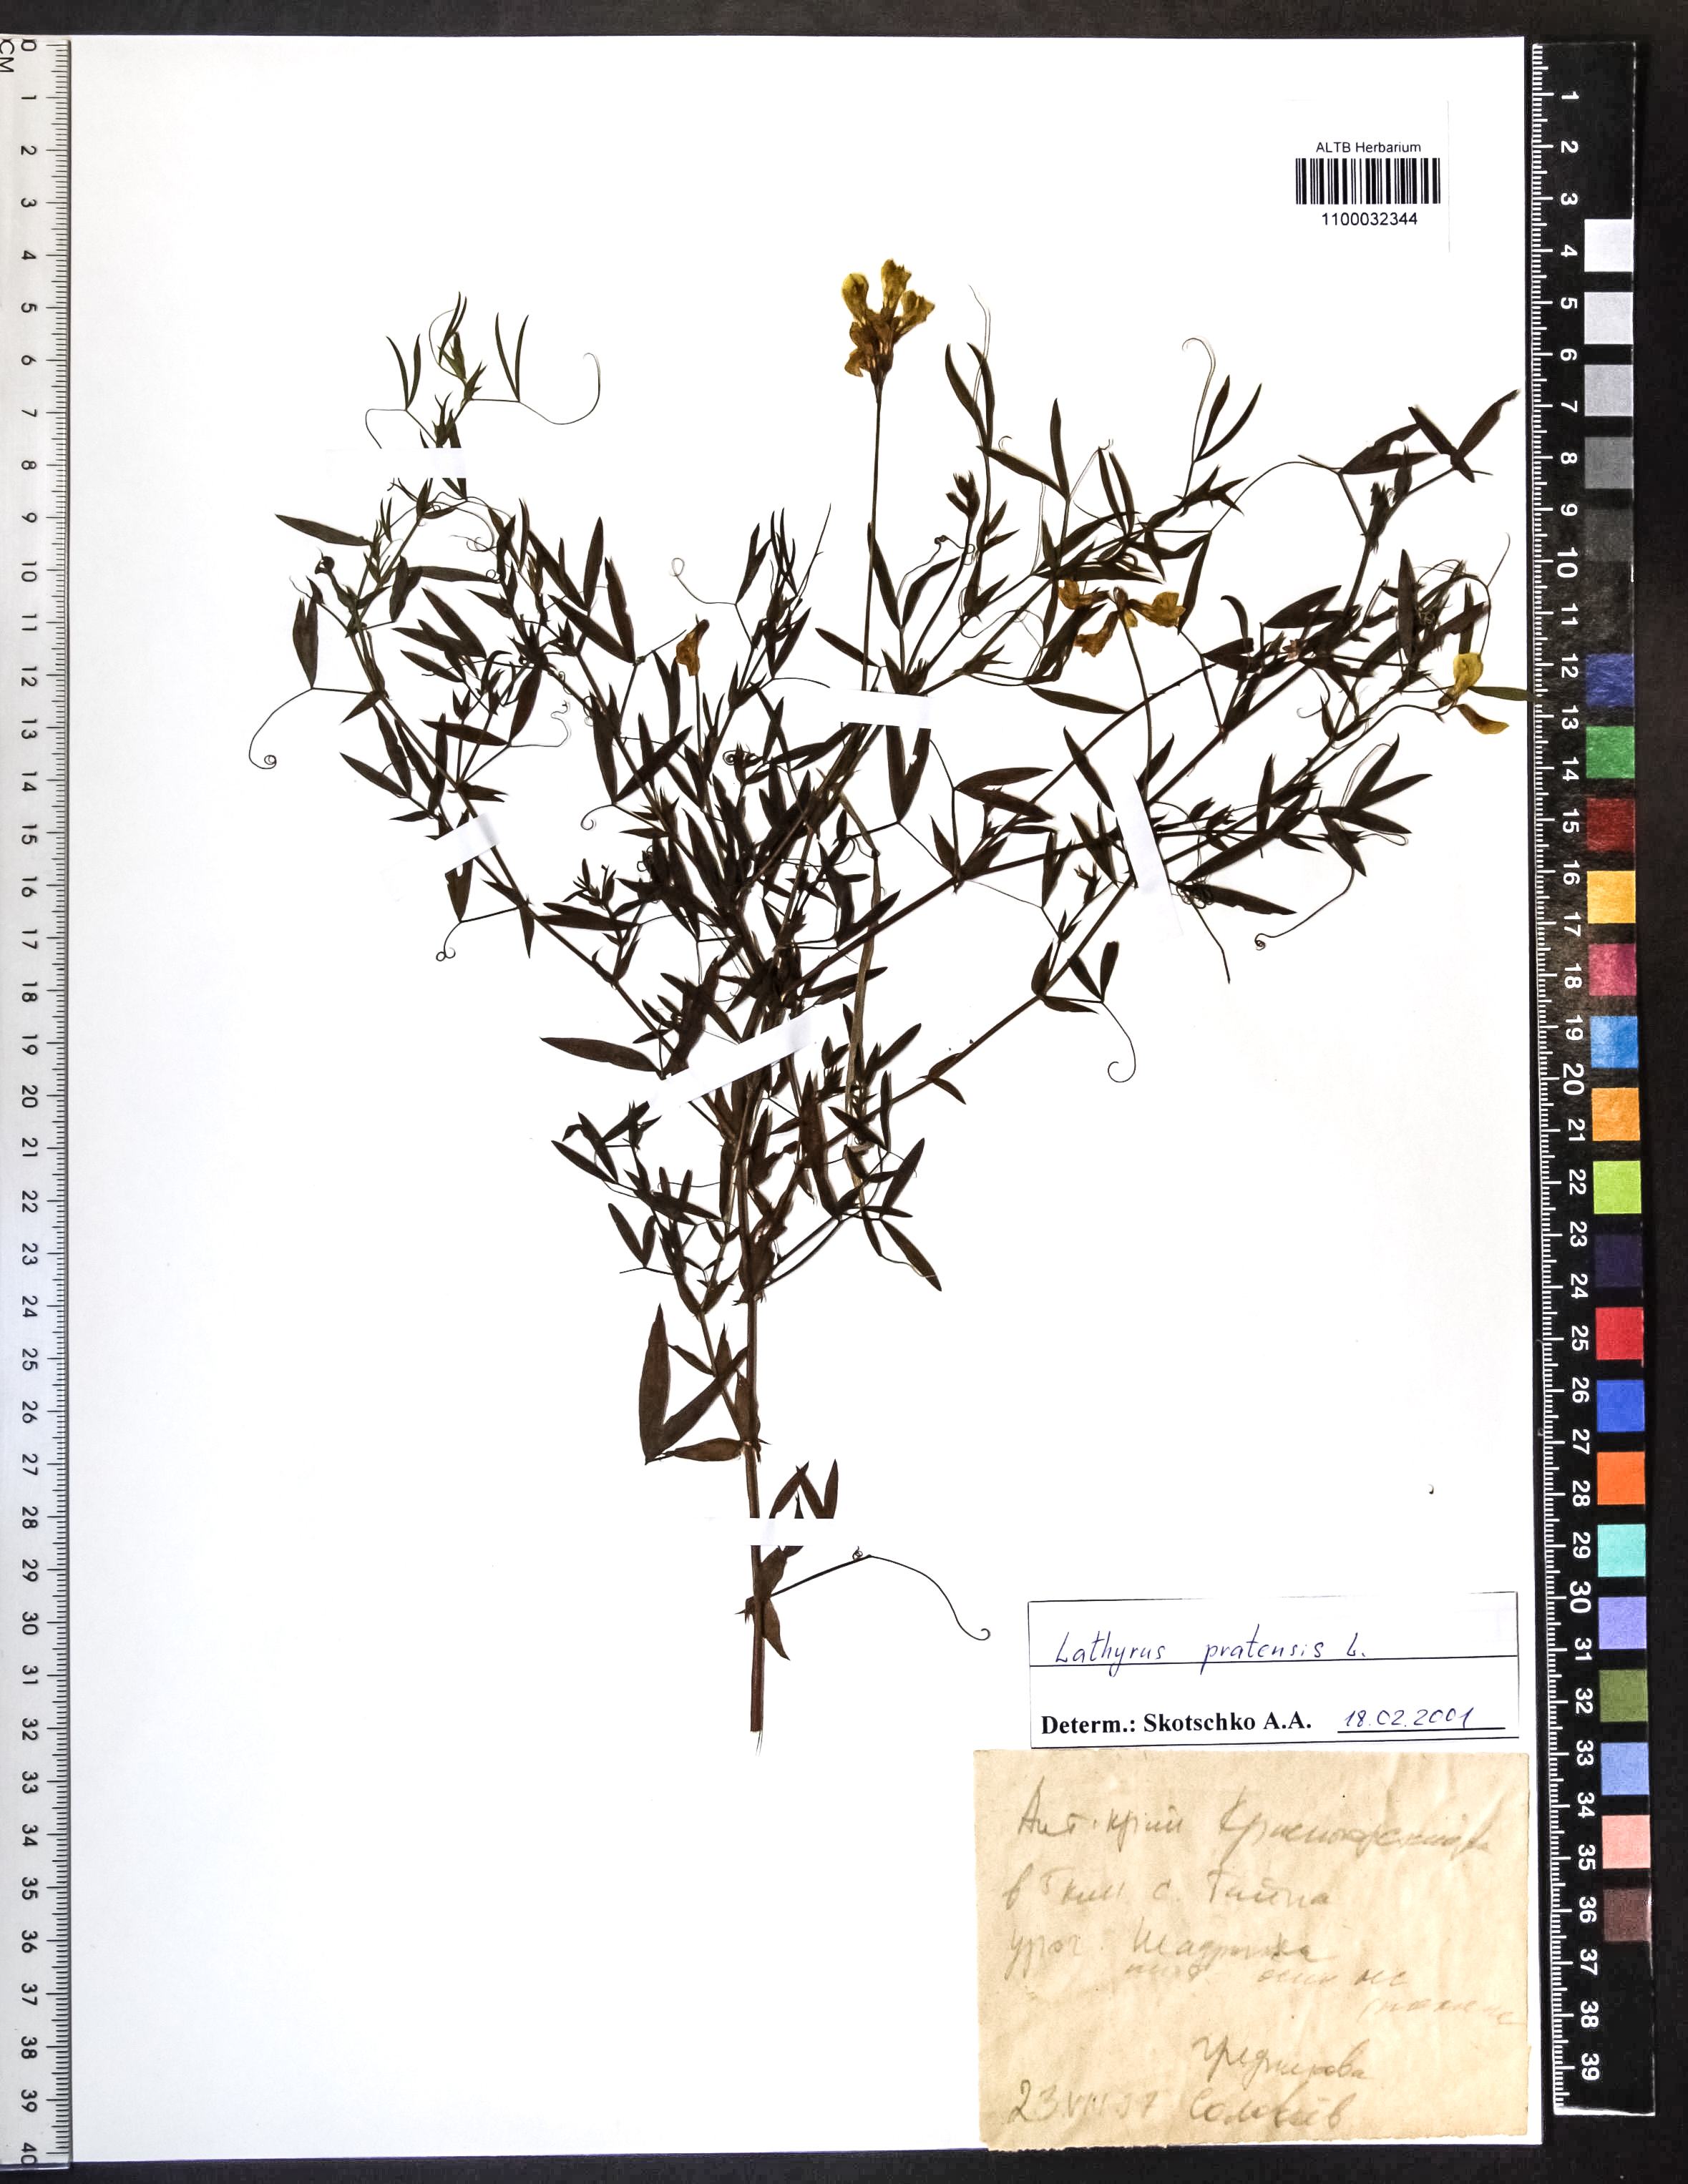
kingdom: Plantae
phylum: Tracheophyta
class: Magnoliopsida
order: Fabales
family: Fabaceae
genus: Lathyrus
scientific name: Lathyrus pratensis
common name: Meadow vetchling
